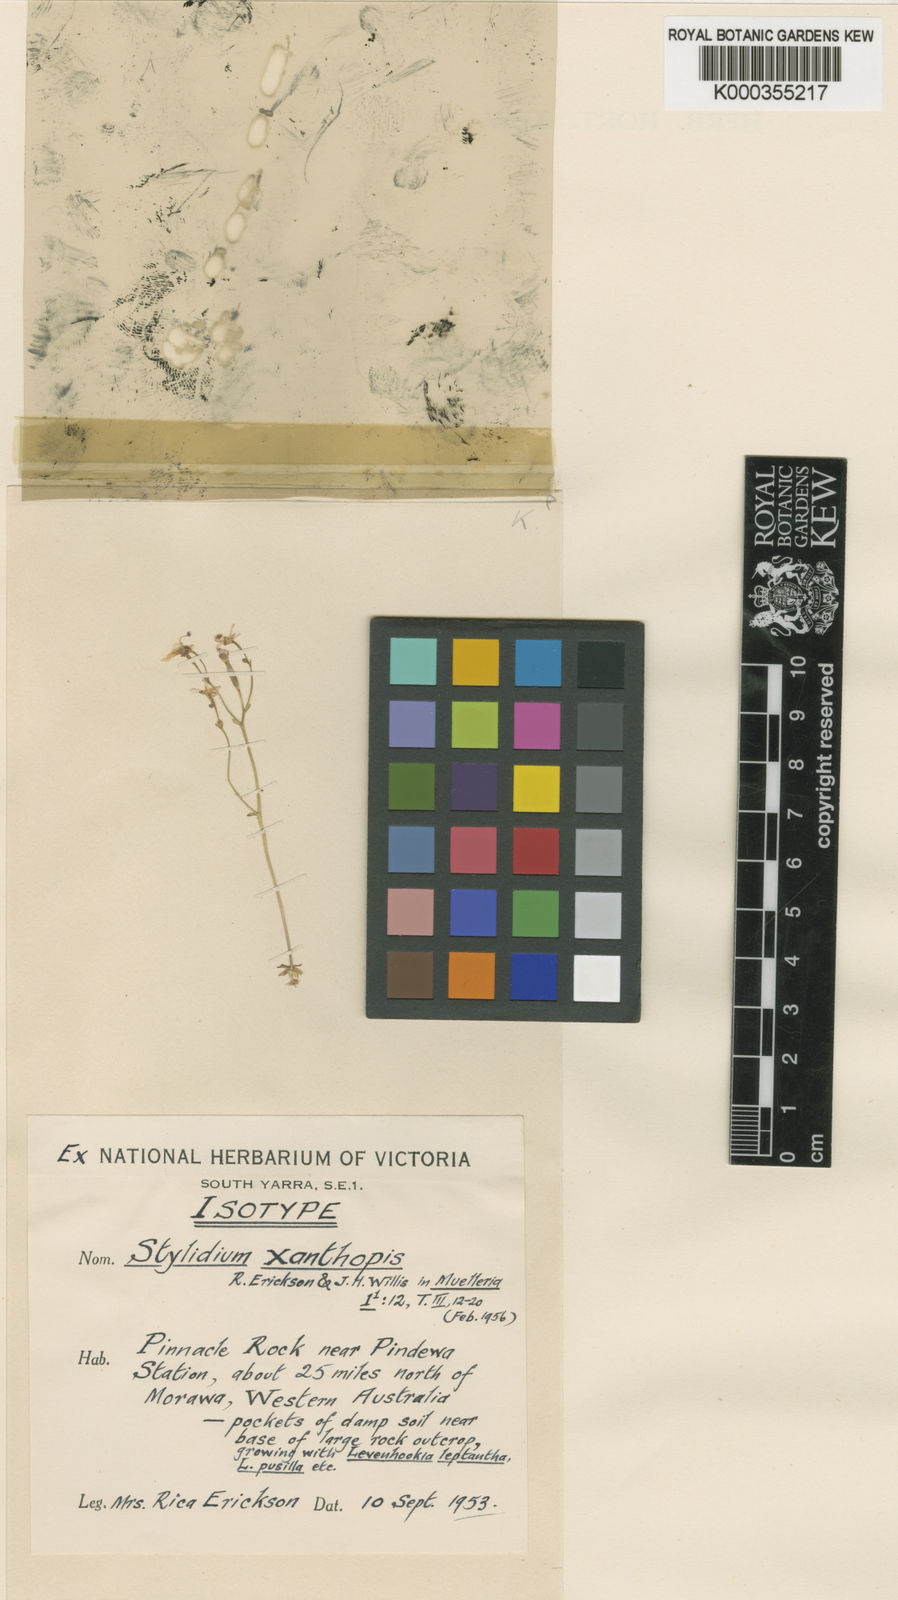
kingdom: Plantae
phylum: Tracheophyta
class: Magnoliopsida
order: Asterales
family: Stylidiaceae
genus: Stylidium
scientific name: Stylidium xanthopis
